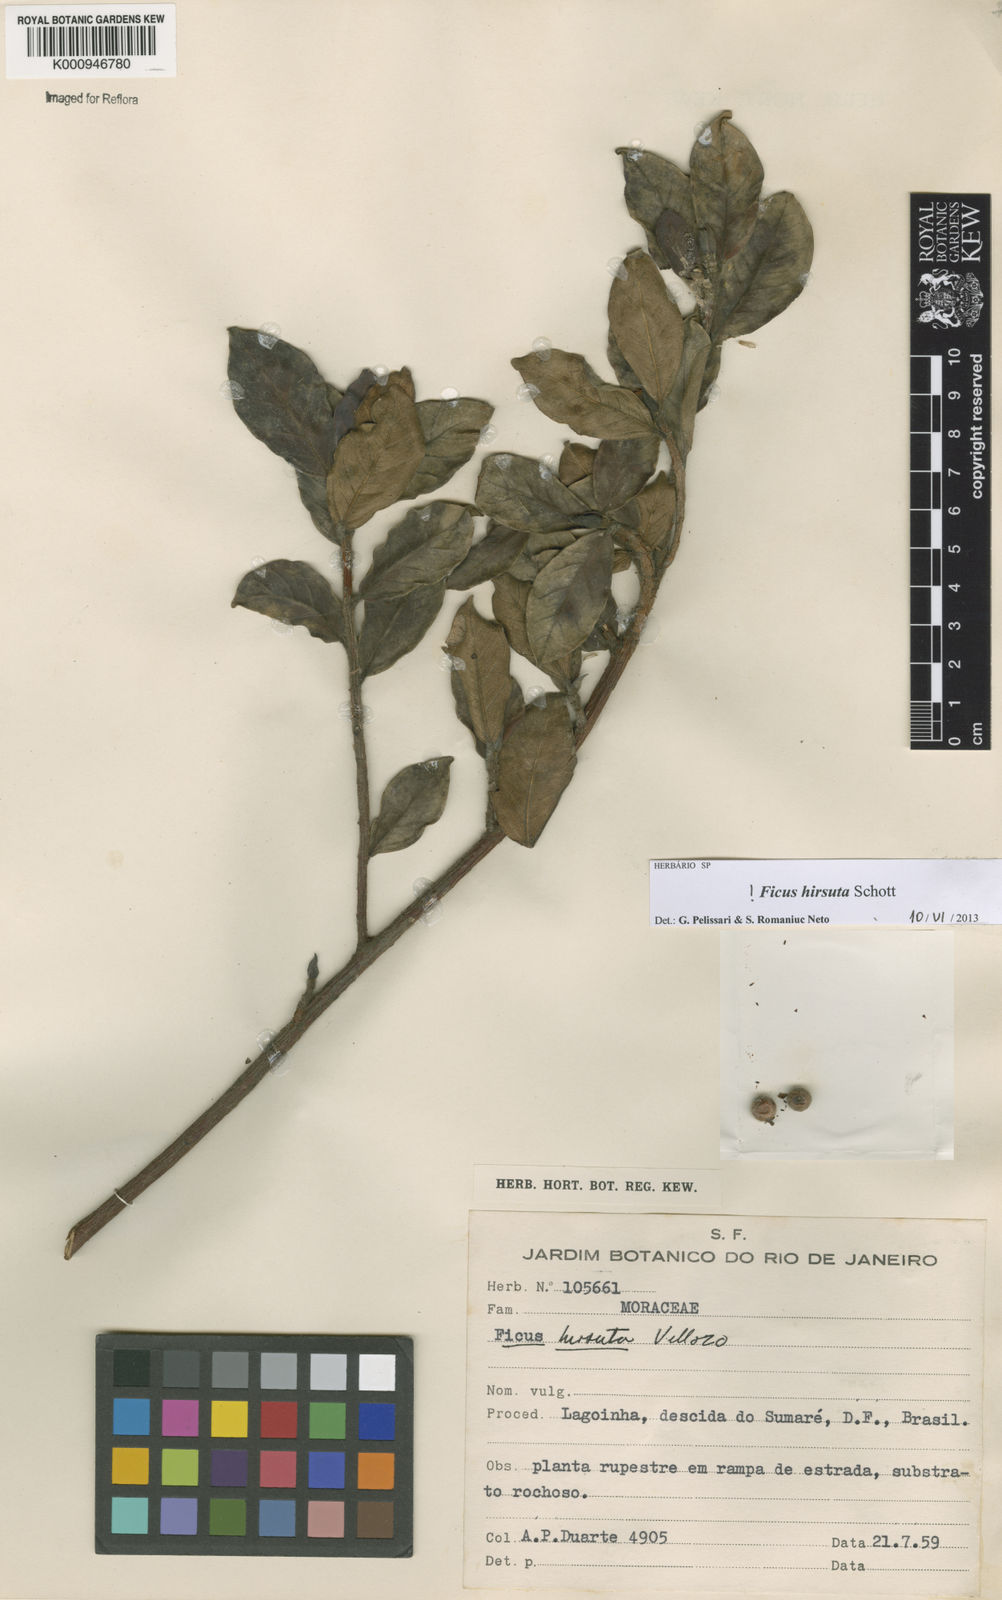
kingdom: Plantae
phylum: Tracheophyta
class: Magnoliopsida
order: Rosales
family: Moraceae
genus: Ficus
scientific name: Ficus hirsuta
